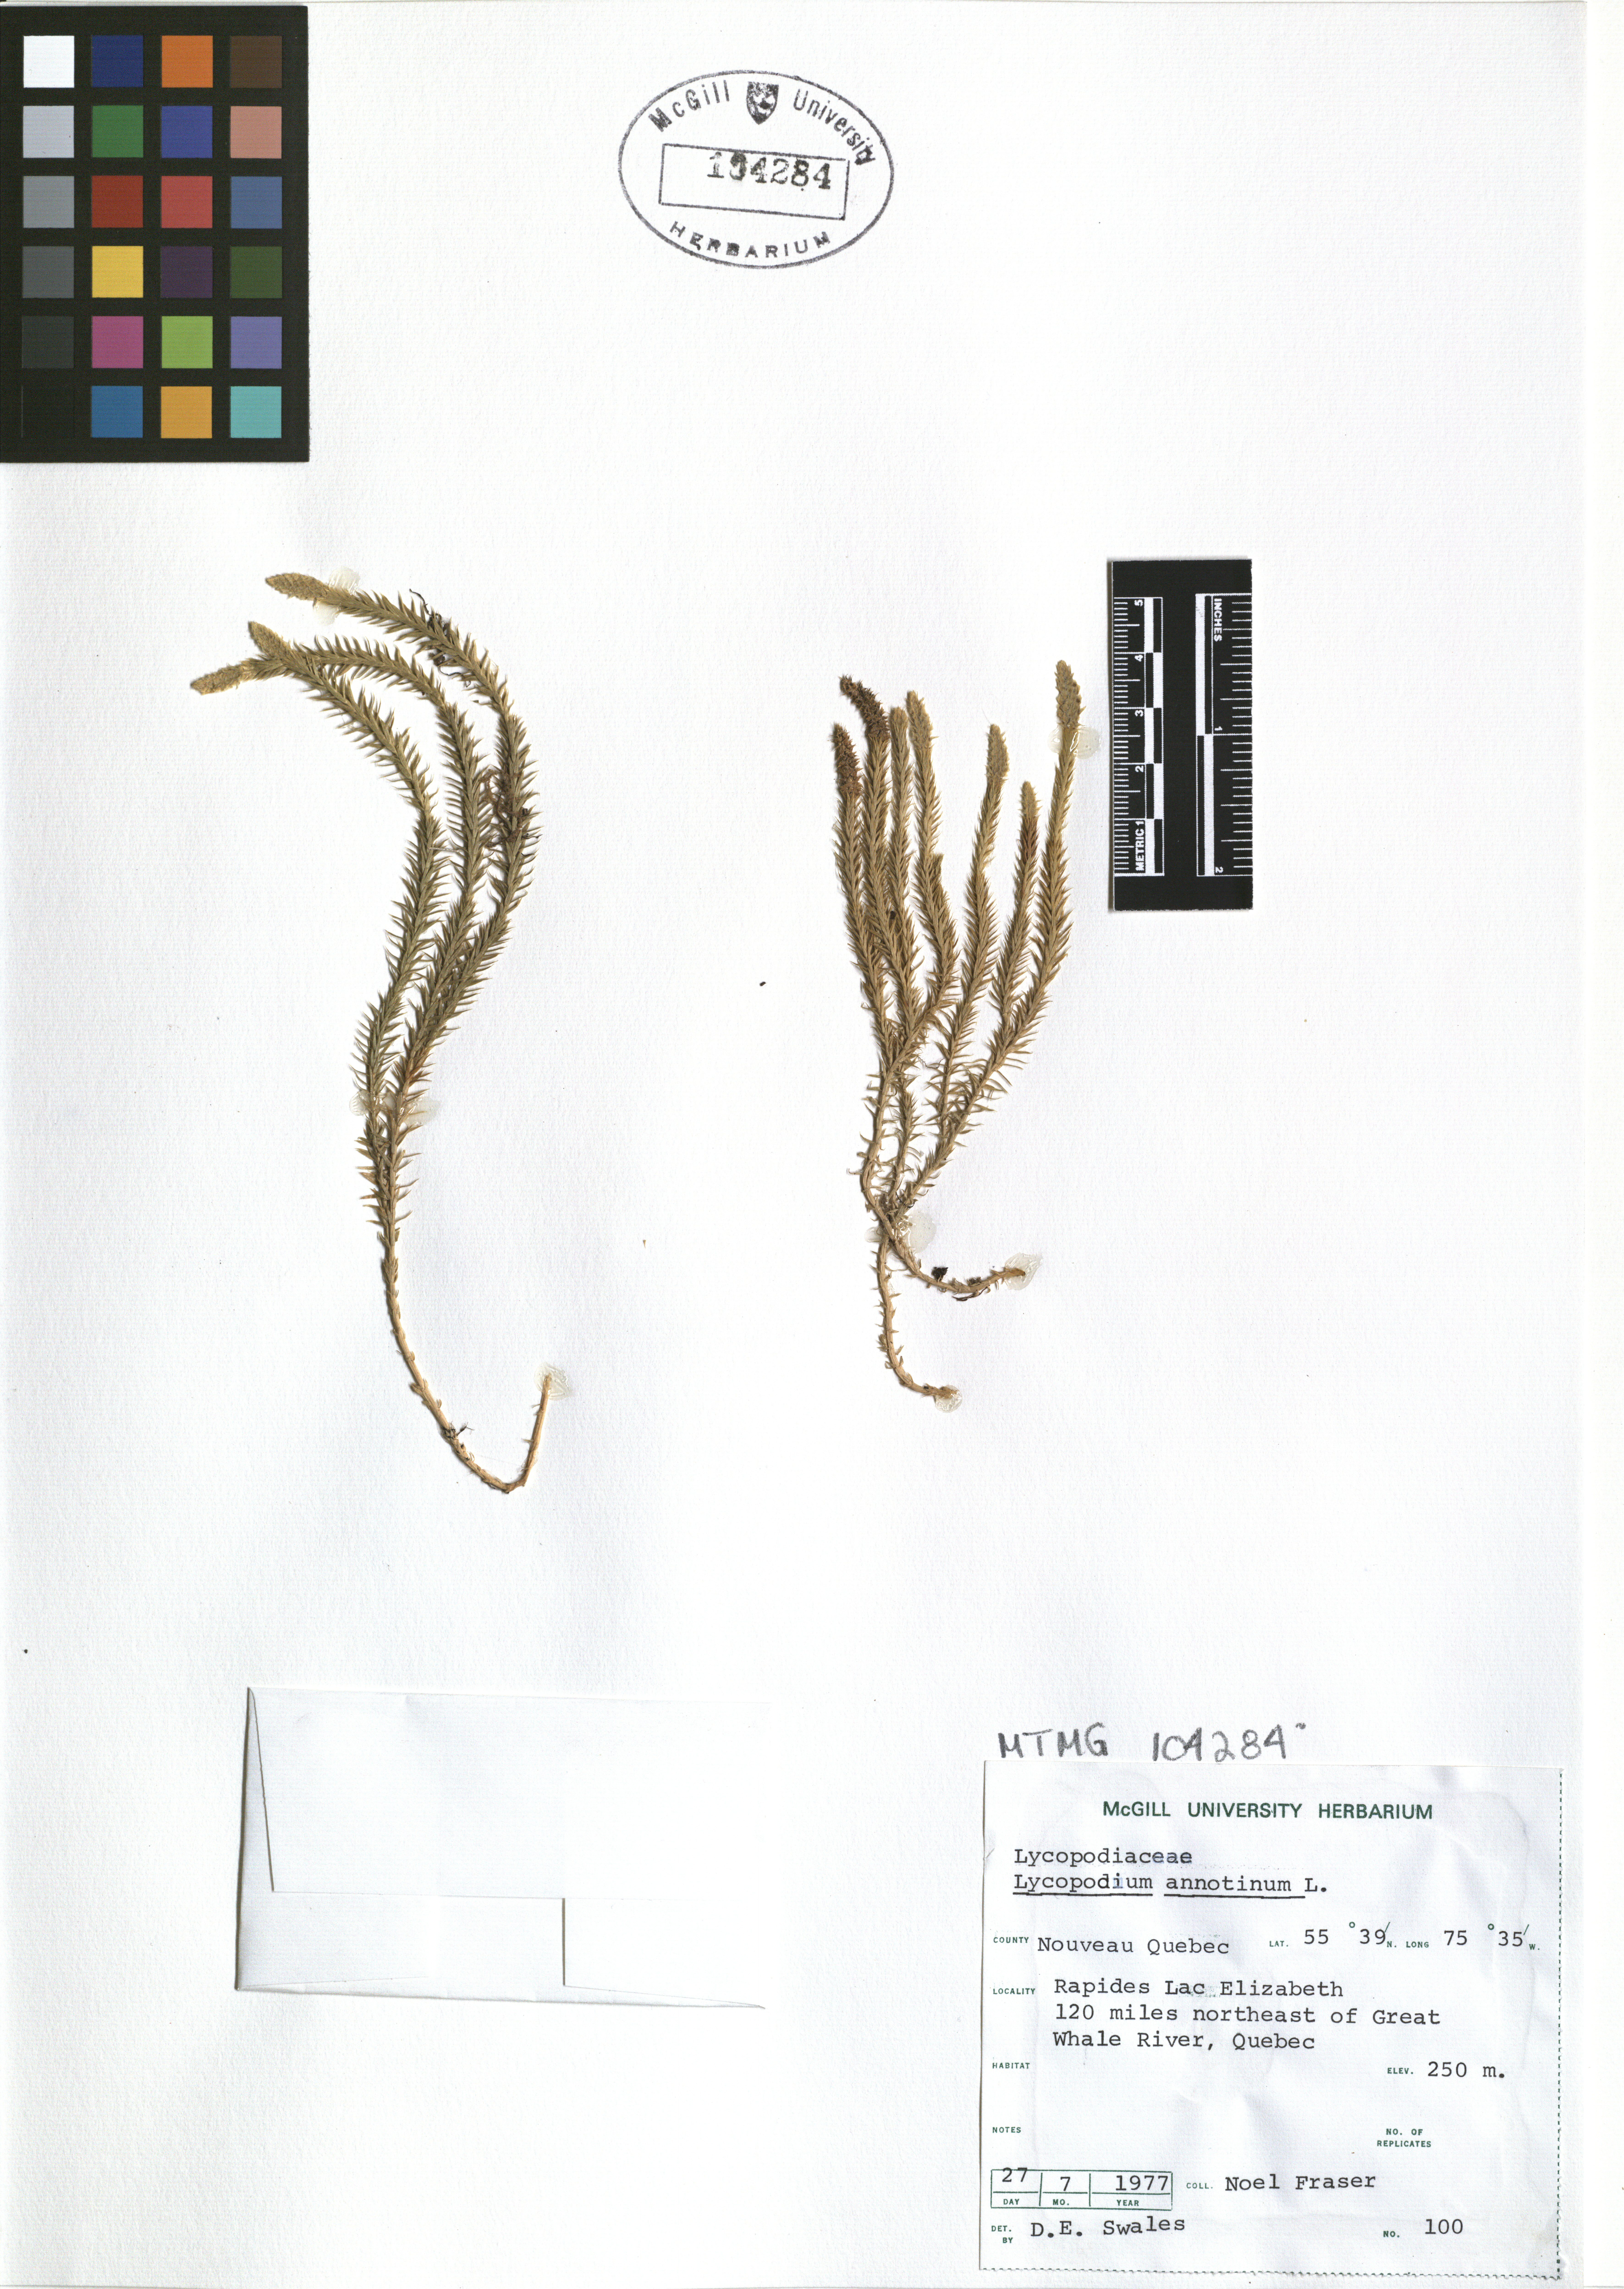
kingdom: Plantae
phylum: Tracheophyta
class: Lycopodiopsida
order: Lycopodiales
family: Lycopodiaceae
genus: Spinulum
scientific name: Spinulum annotinum
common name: Interrupted club-moss
